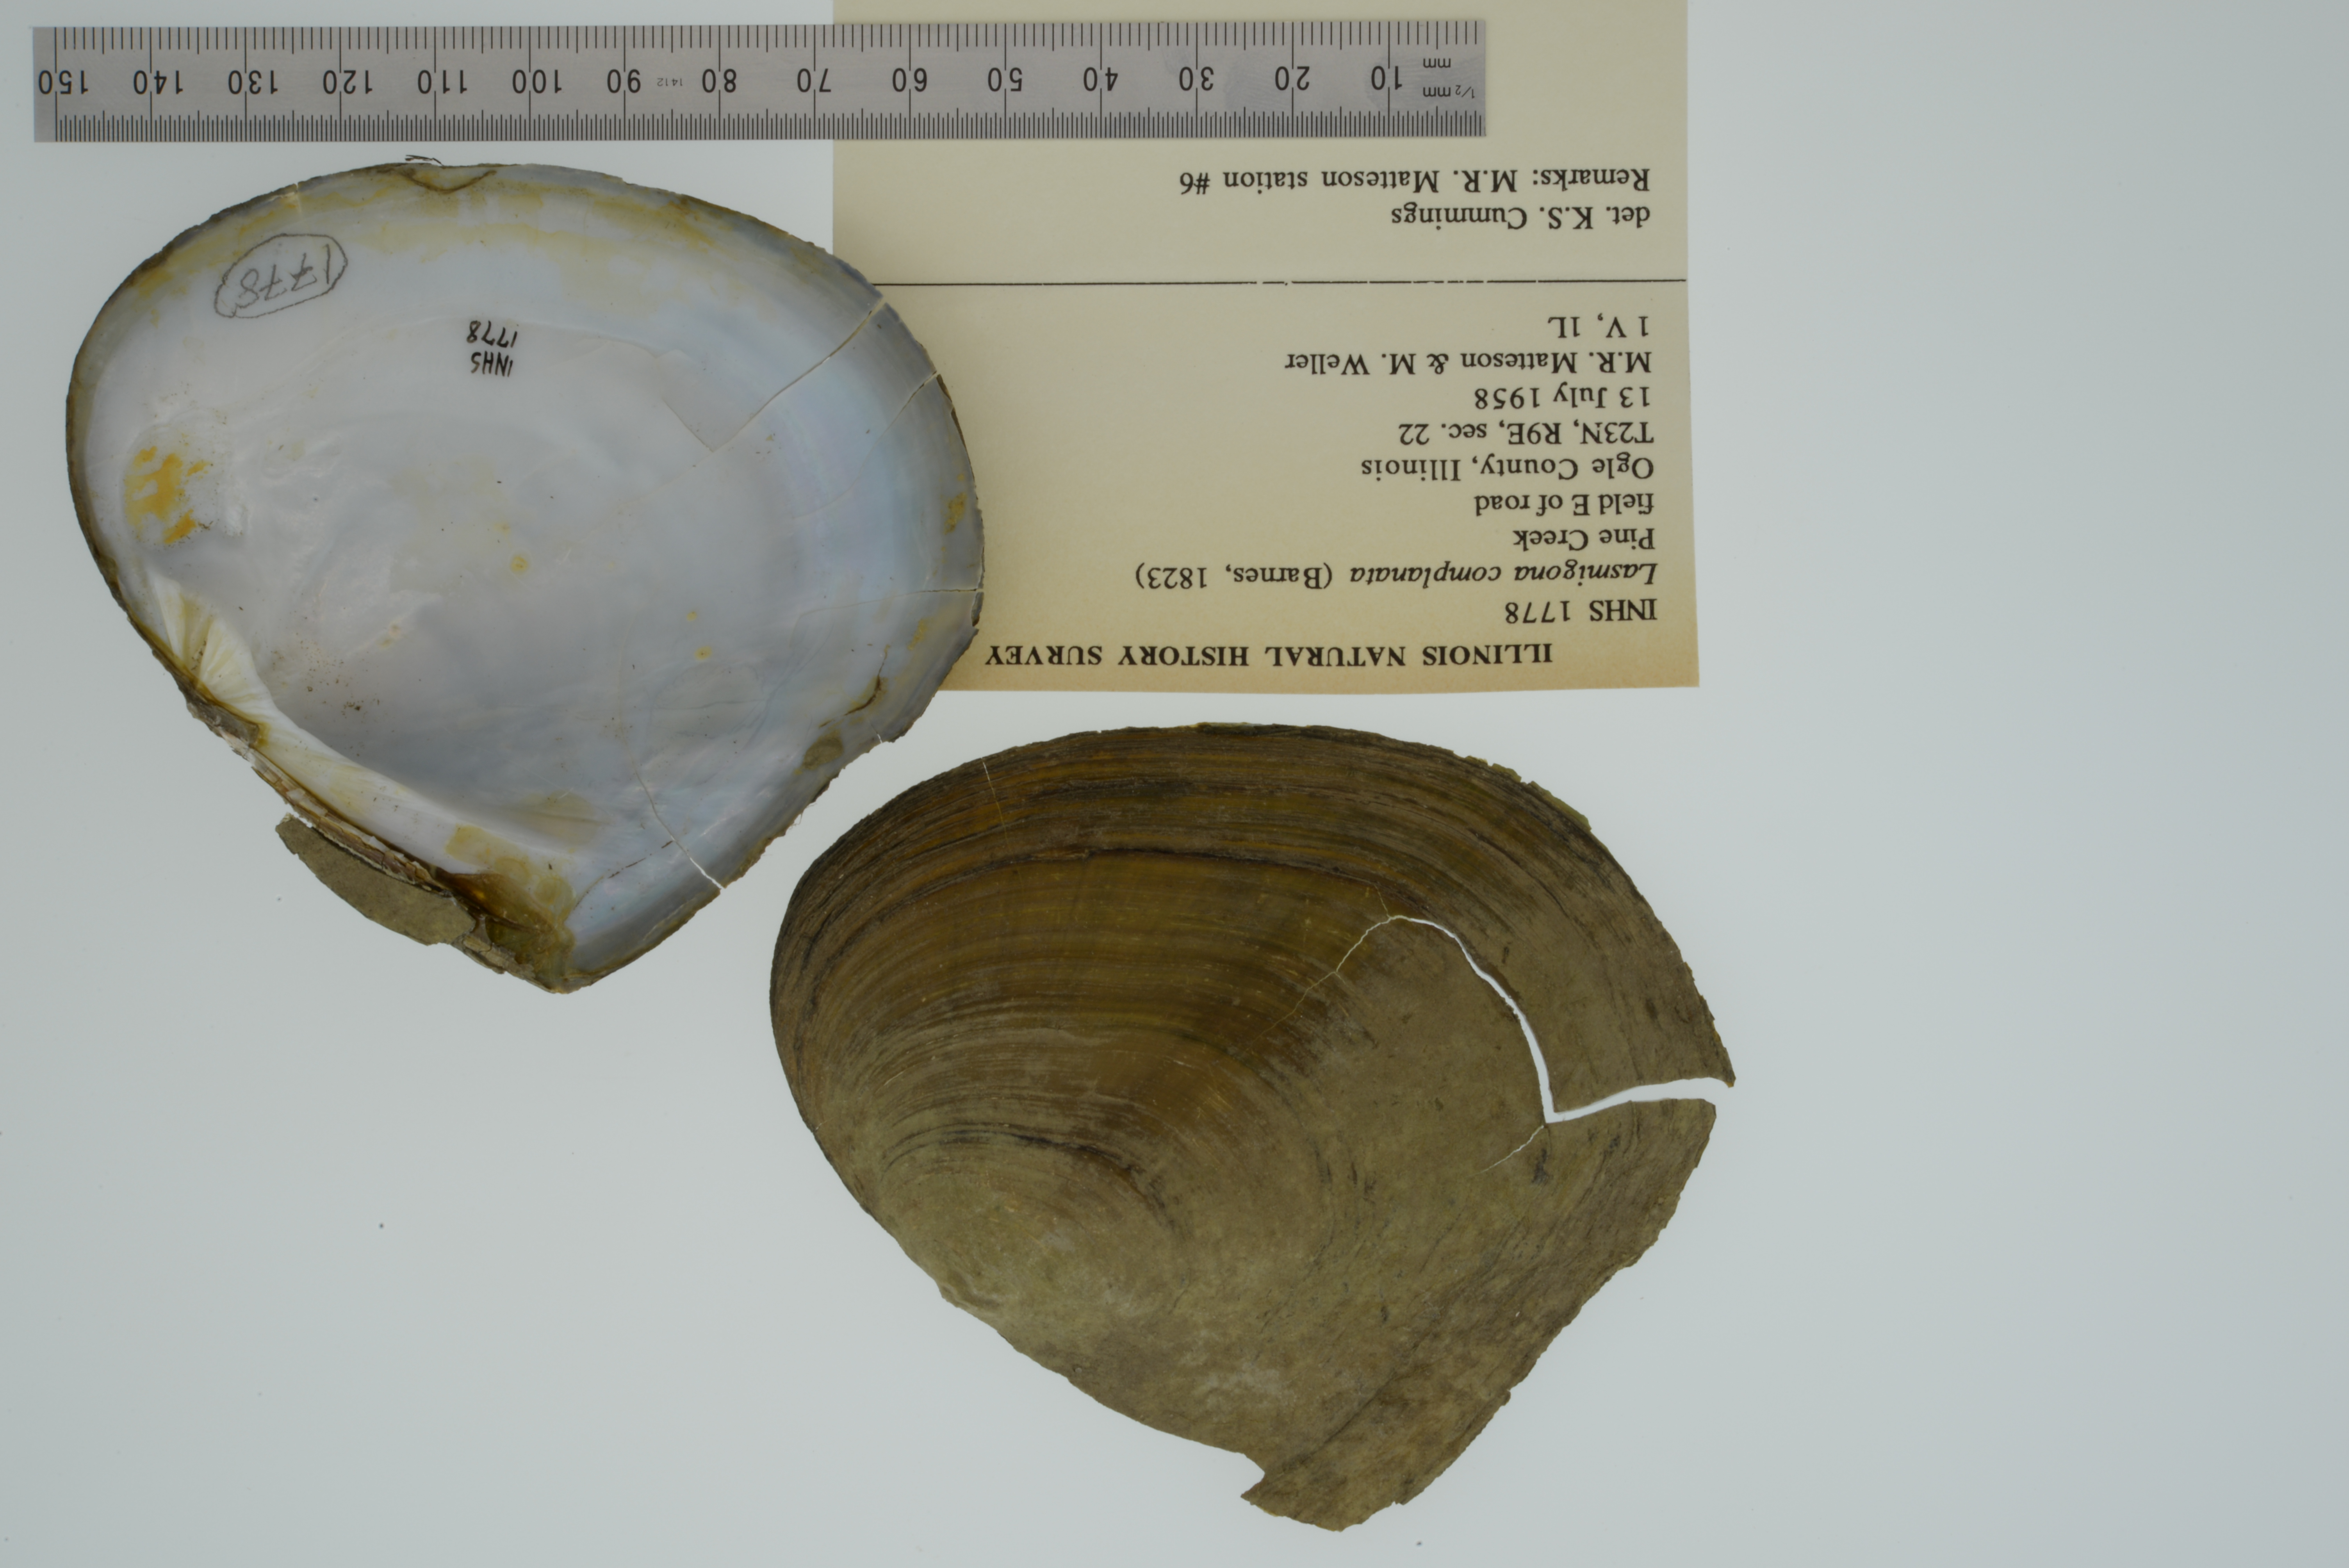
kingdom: Animalia
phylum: Mollusca
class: Bivalvia
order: Unionida
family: Unionidae
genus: Lasmigona
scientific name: Lasmigona complanata
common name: White heelsplitter
